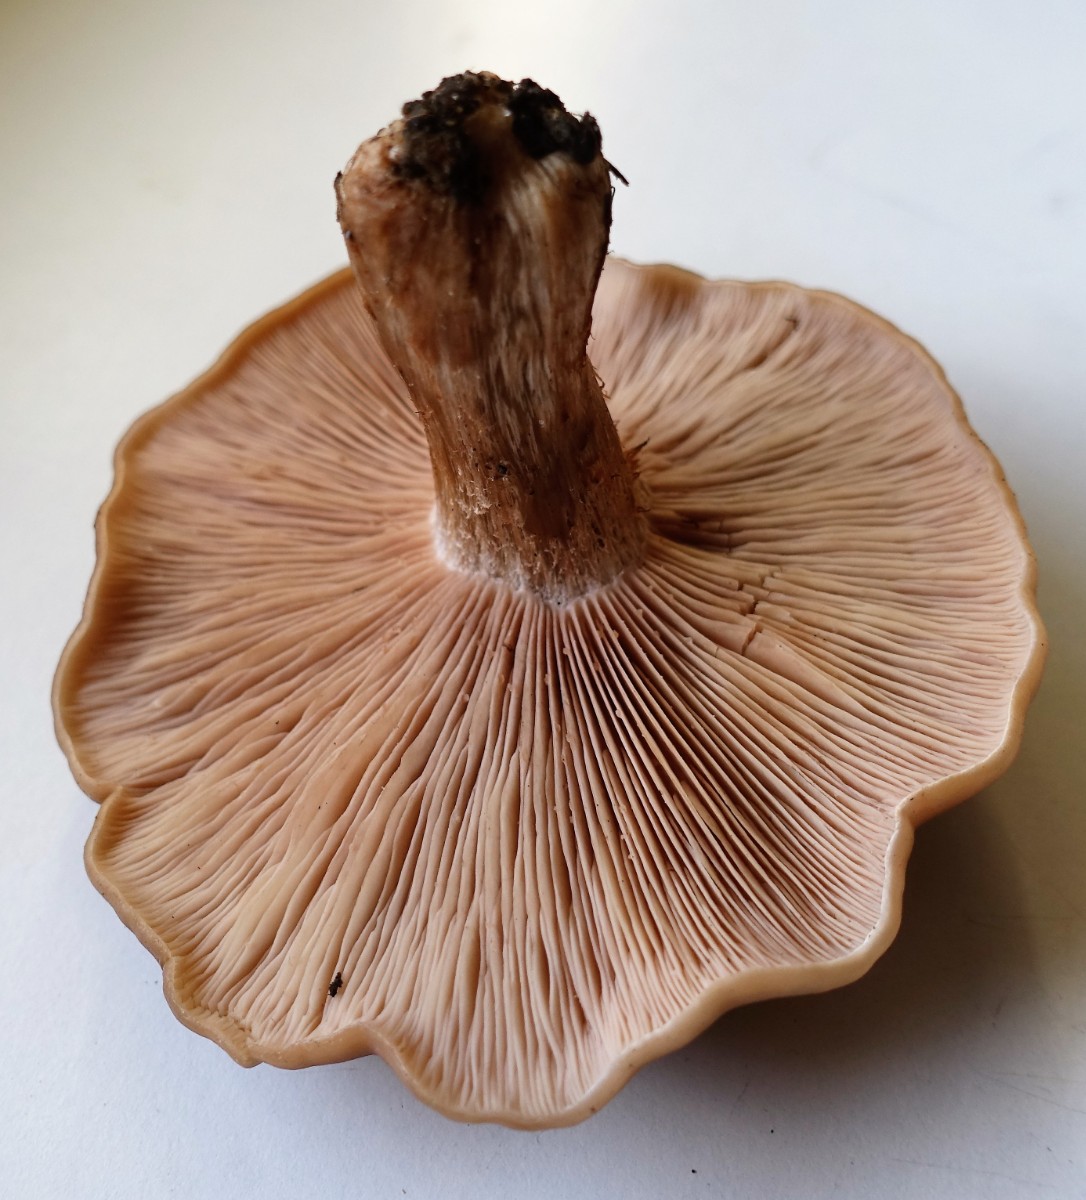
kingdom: Fungi
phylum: Basidiomycota
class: Agaricomycetes
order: Agaricales
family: Tricholomataceae
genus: Lepista
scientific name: Lepista irina
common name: violduftende hekseringshat
